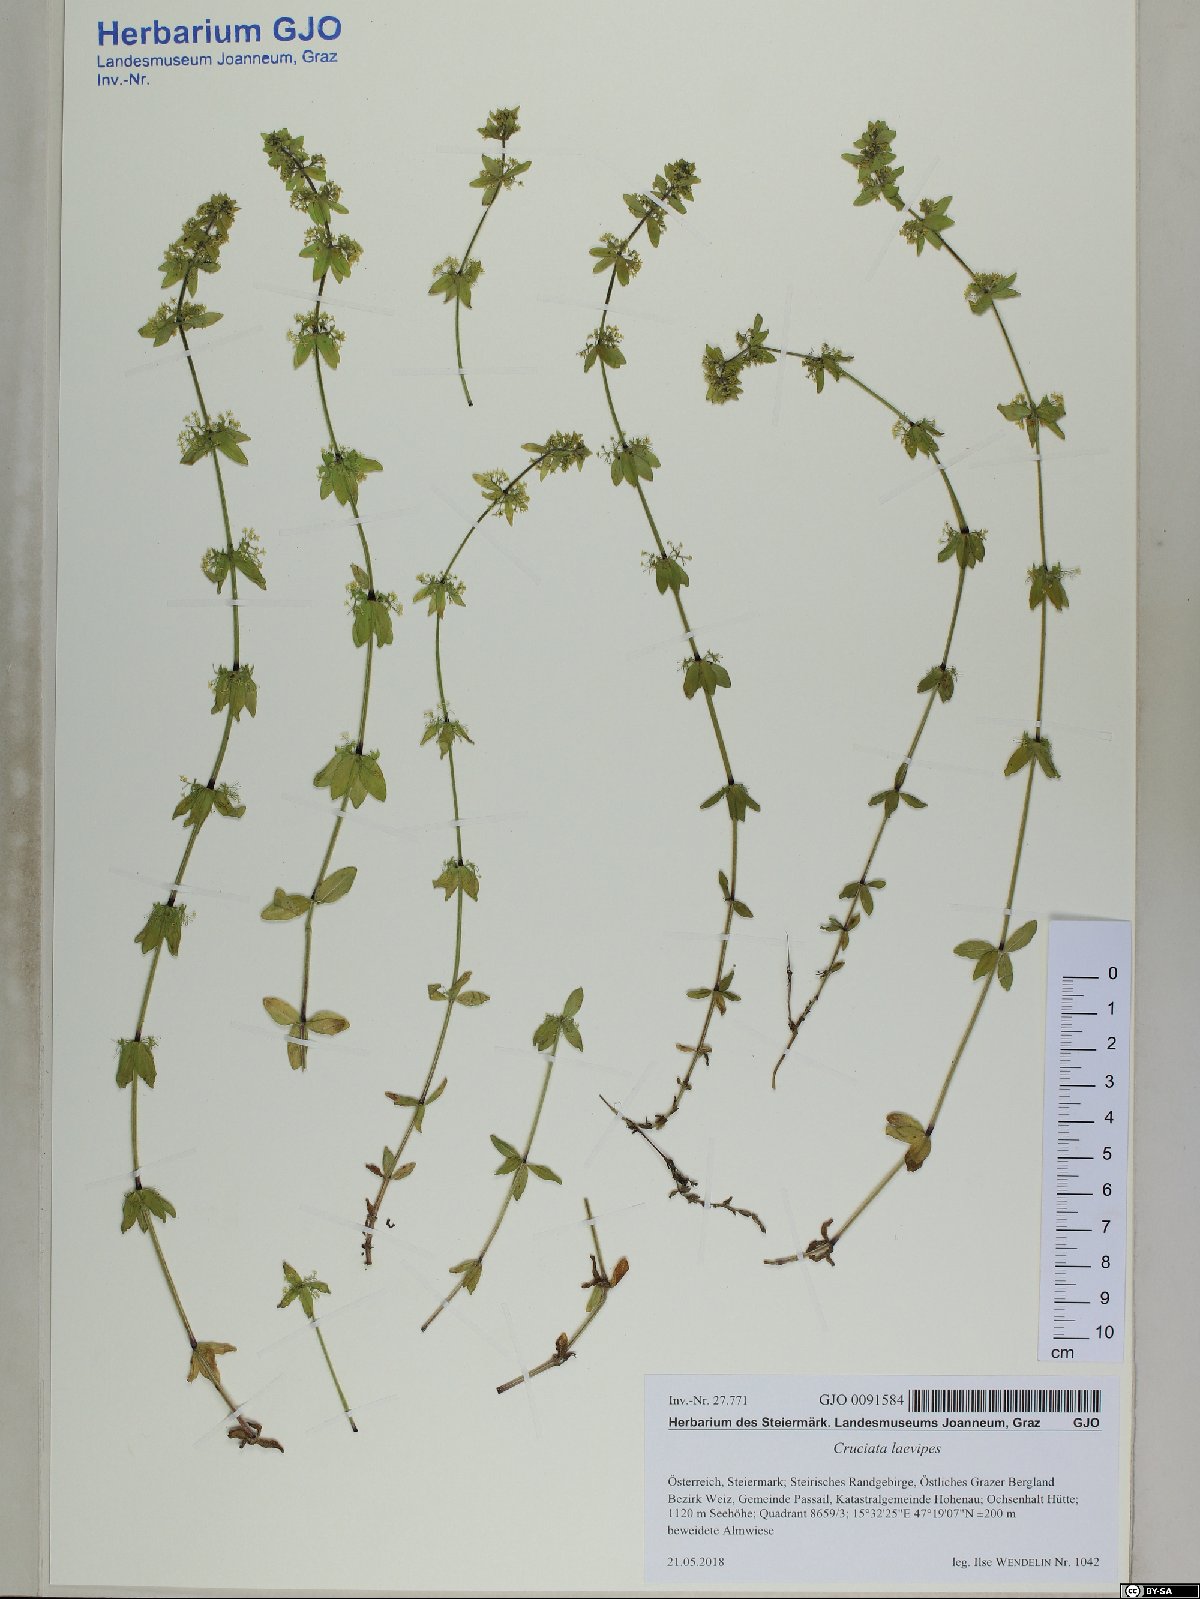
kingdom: Plantae
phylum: Tracheophyta
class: Magnoliopsida
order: Gentianales
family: Rubiaceae
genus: Cruciata
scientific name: Cruciata laevipes
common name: Crosswort
